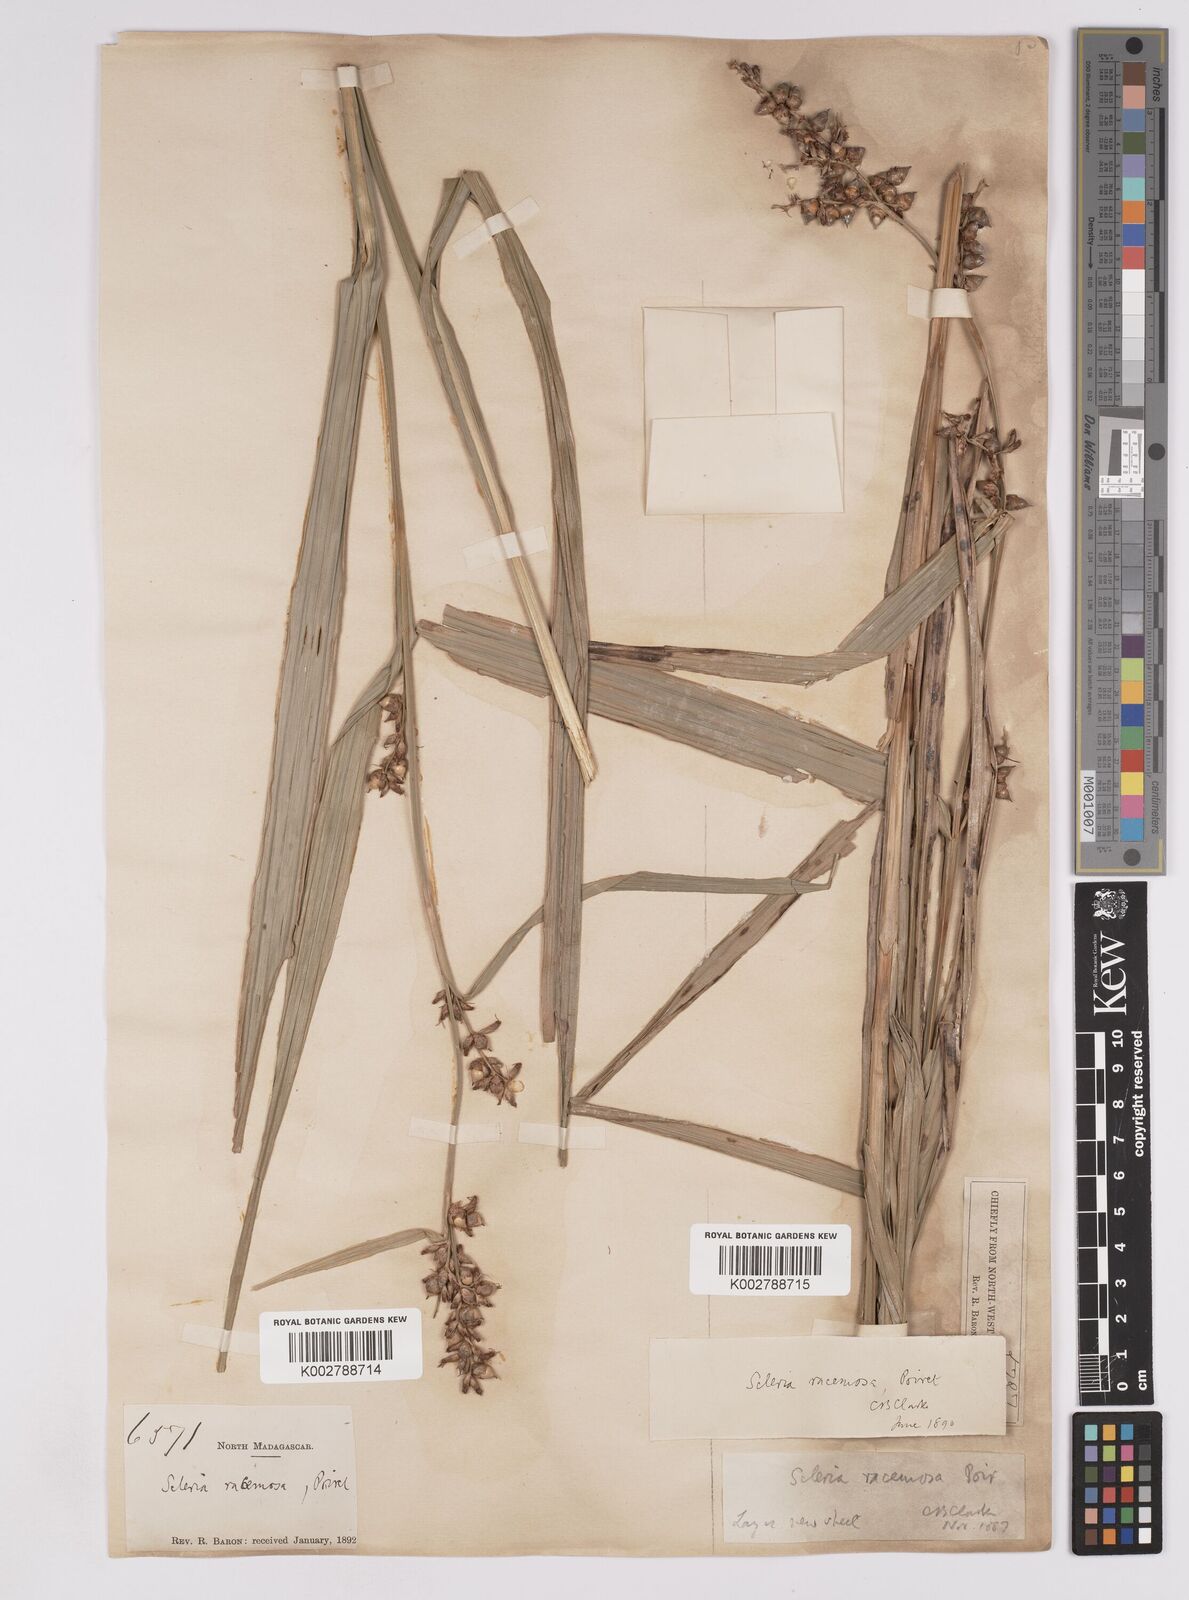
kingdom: Plantae
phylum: Tracheophyta
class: Liliopsida
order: Poales
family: Cyperaceae
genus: Scleria
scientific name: Scleria racemosa
